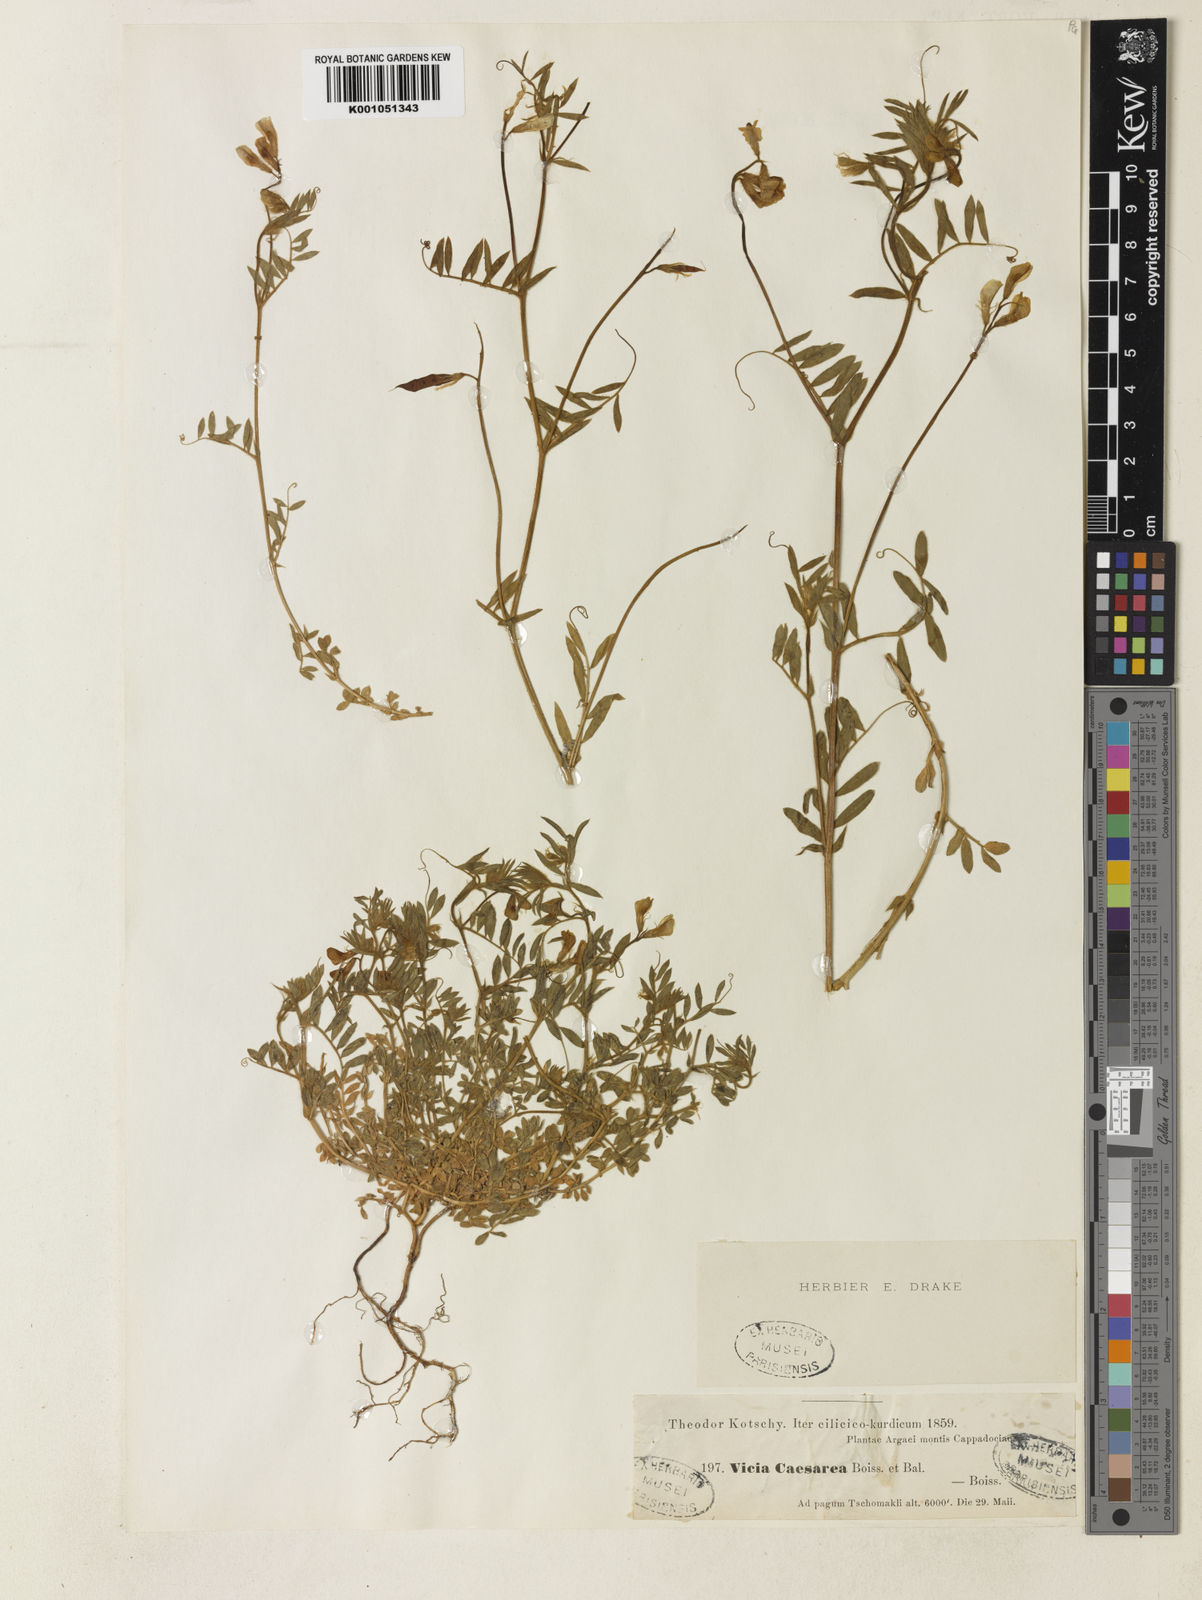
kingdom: Plantae
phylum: Tracheophyta
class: Magnoliopsida
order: Fabales
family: Fabaceae
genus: Vicia
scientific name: Vicia caesarea
